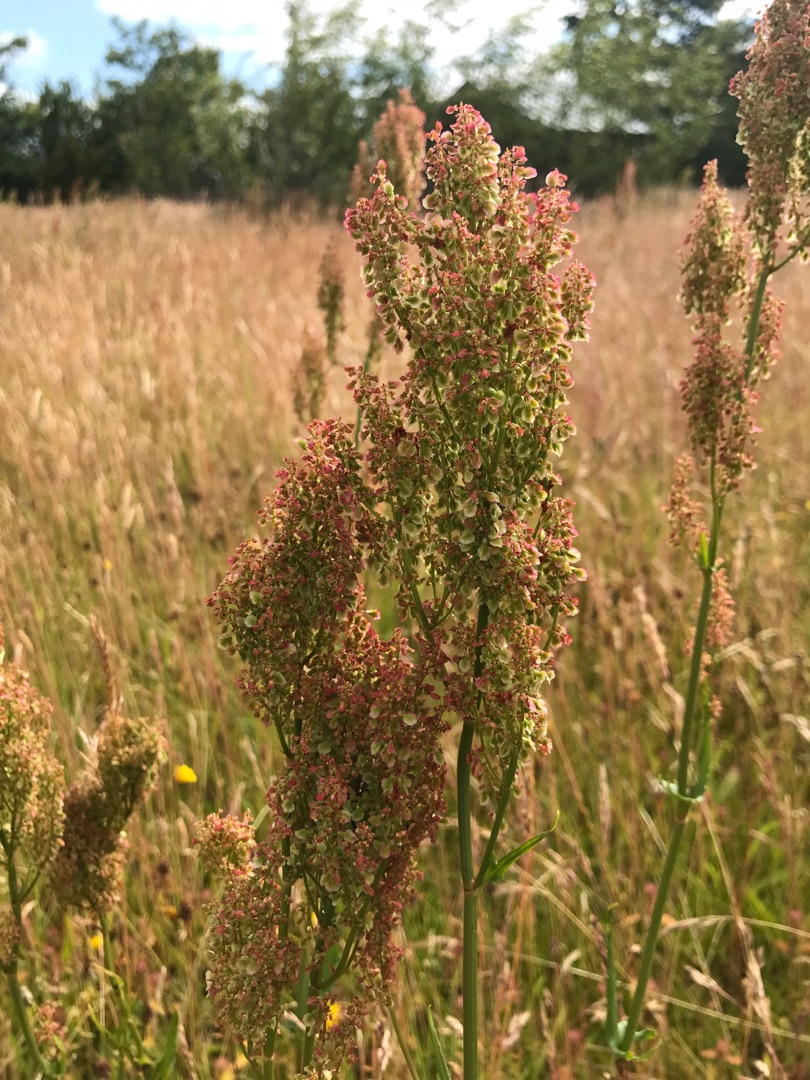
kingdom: Plantae
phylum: Tracheophyta
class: Magnoliopsida
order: Caryophyllales
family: Polygonaceae
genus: Rumex
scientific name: Rumex thyrsiflorus
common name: Dusk-syre
